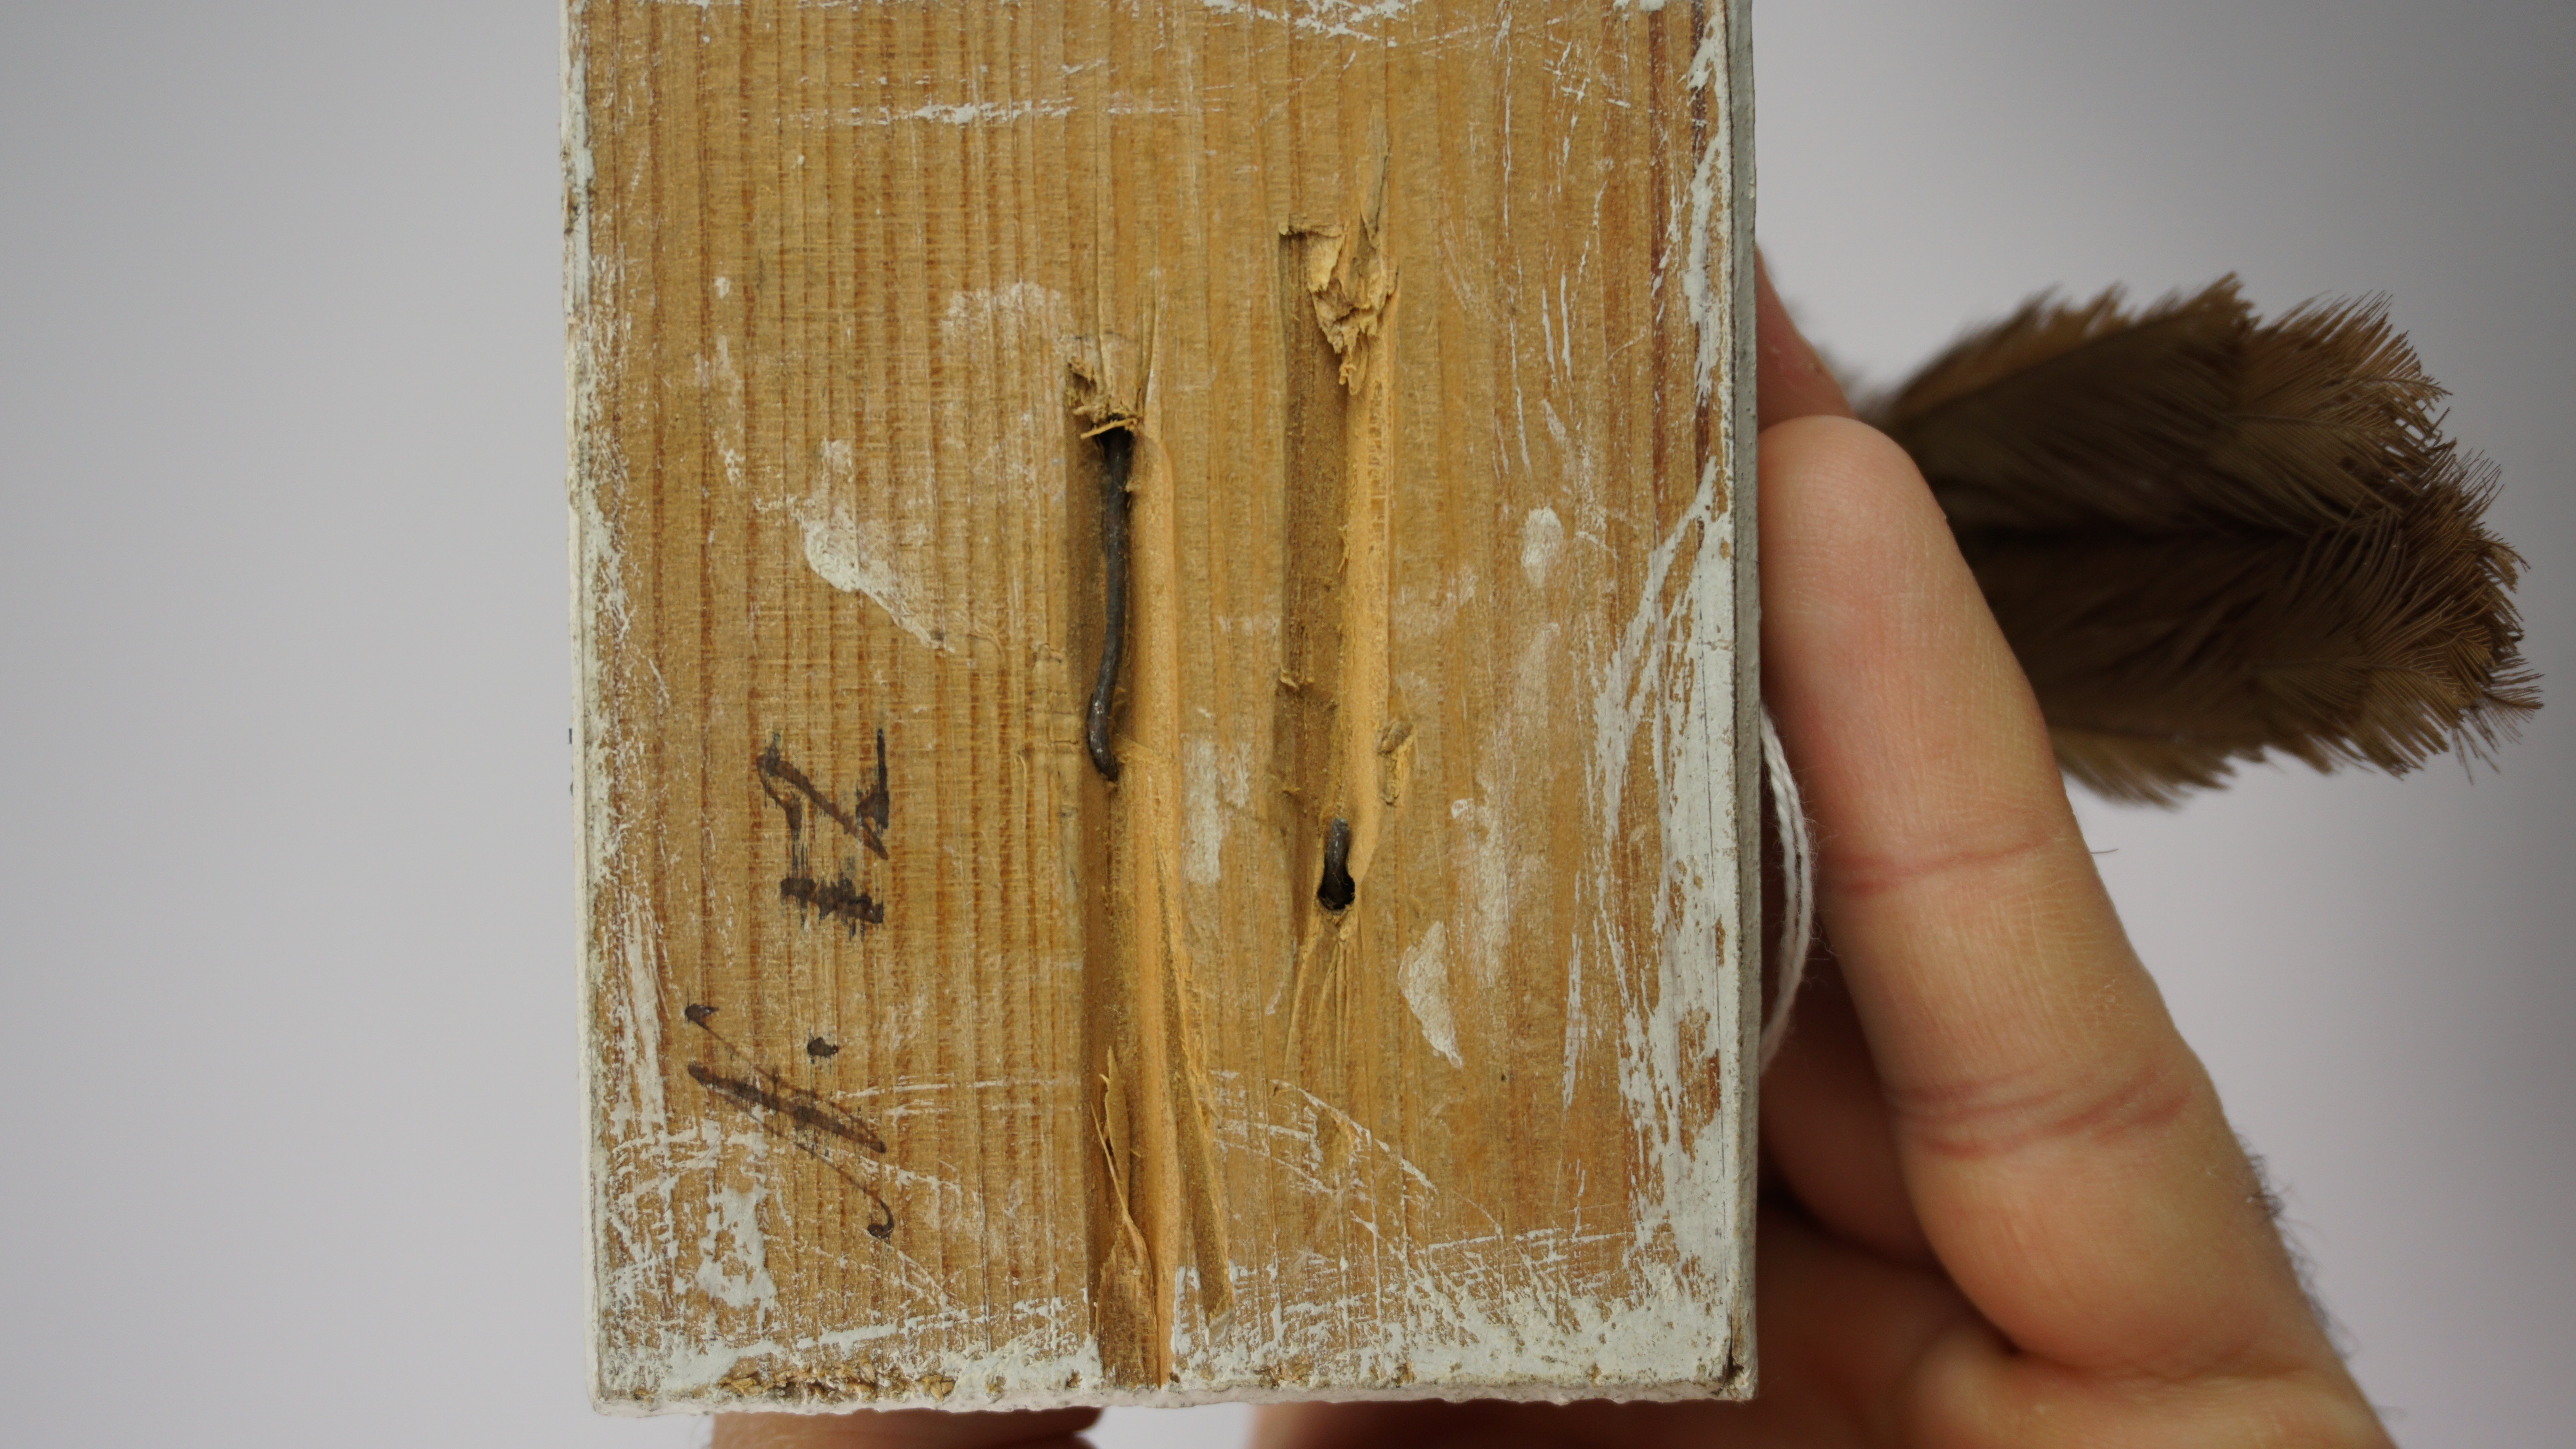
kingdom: Animalia
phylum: Chordata
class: Aves
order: Passeriformes
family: Rhinocryptidae
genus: Scelorchilus
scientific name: Scelorchilus albicollis
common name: White-throated tapaculo
